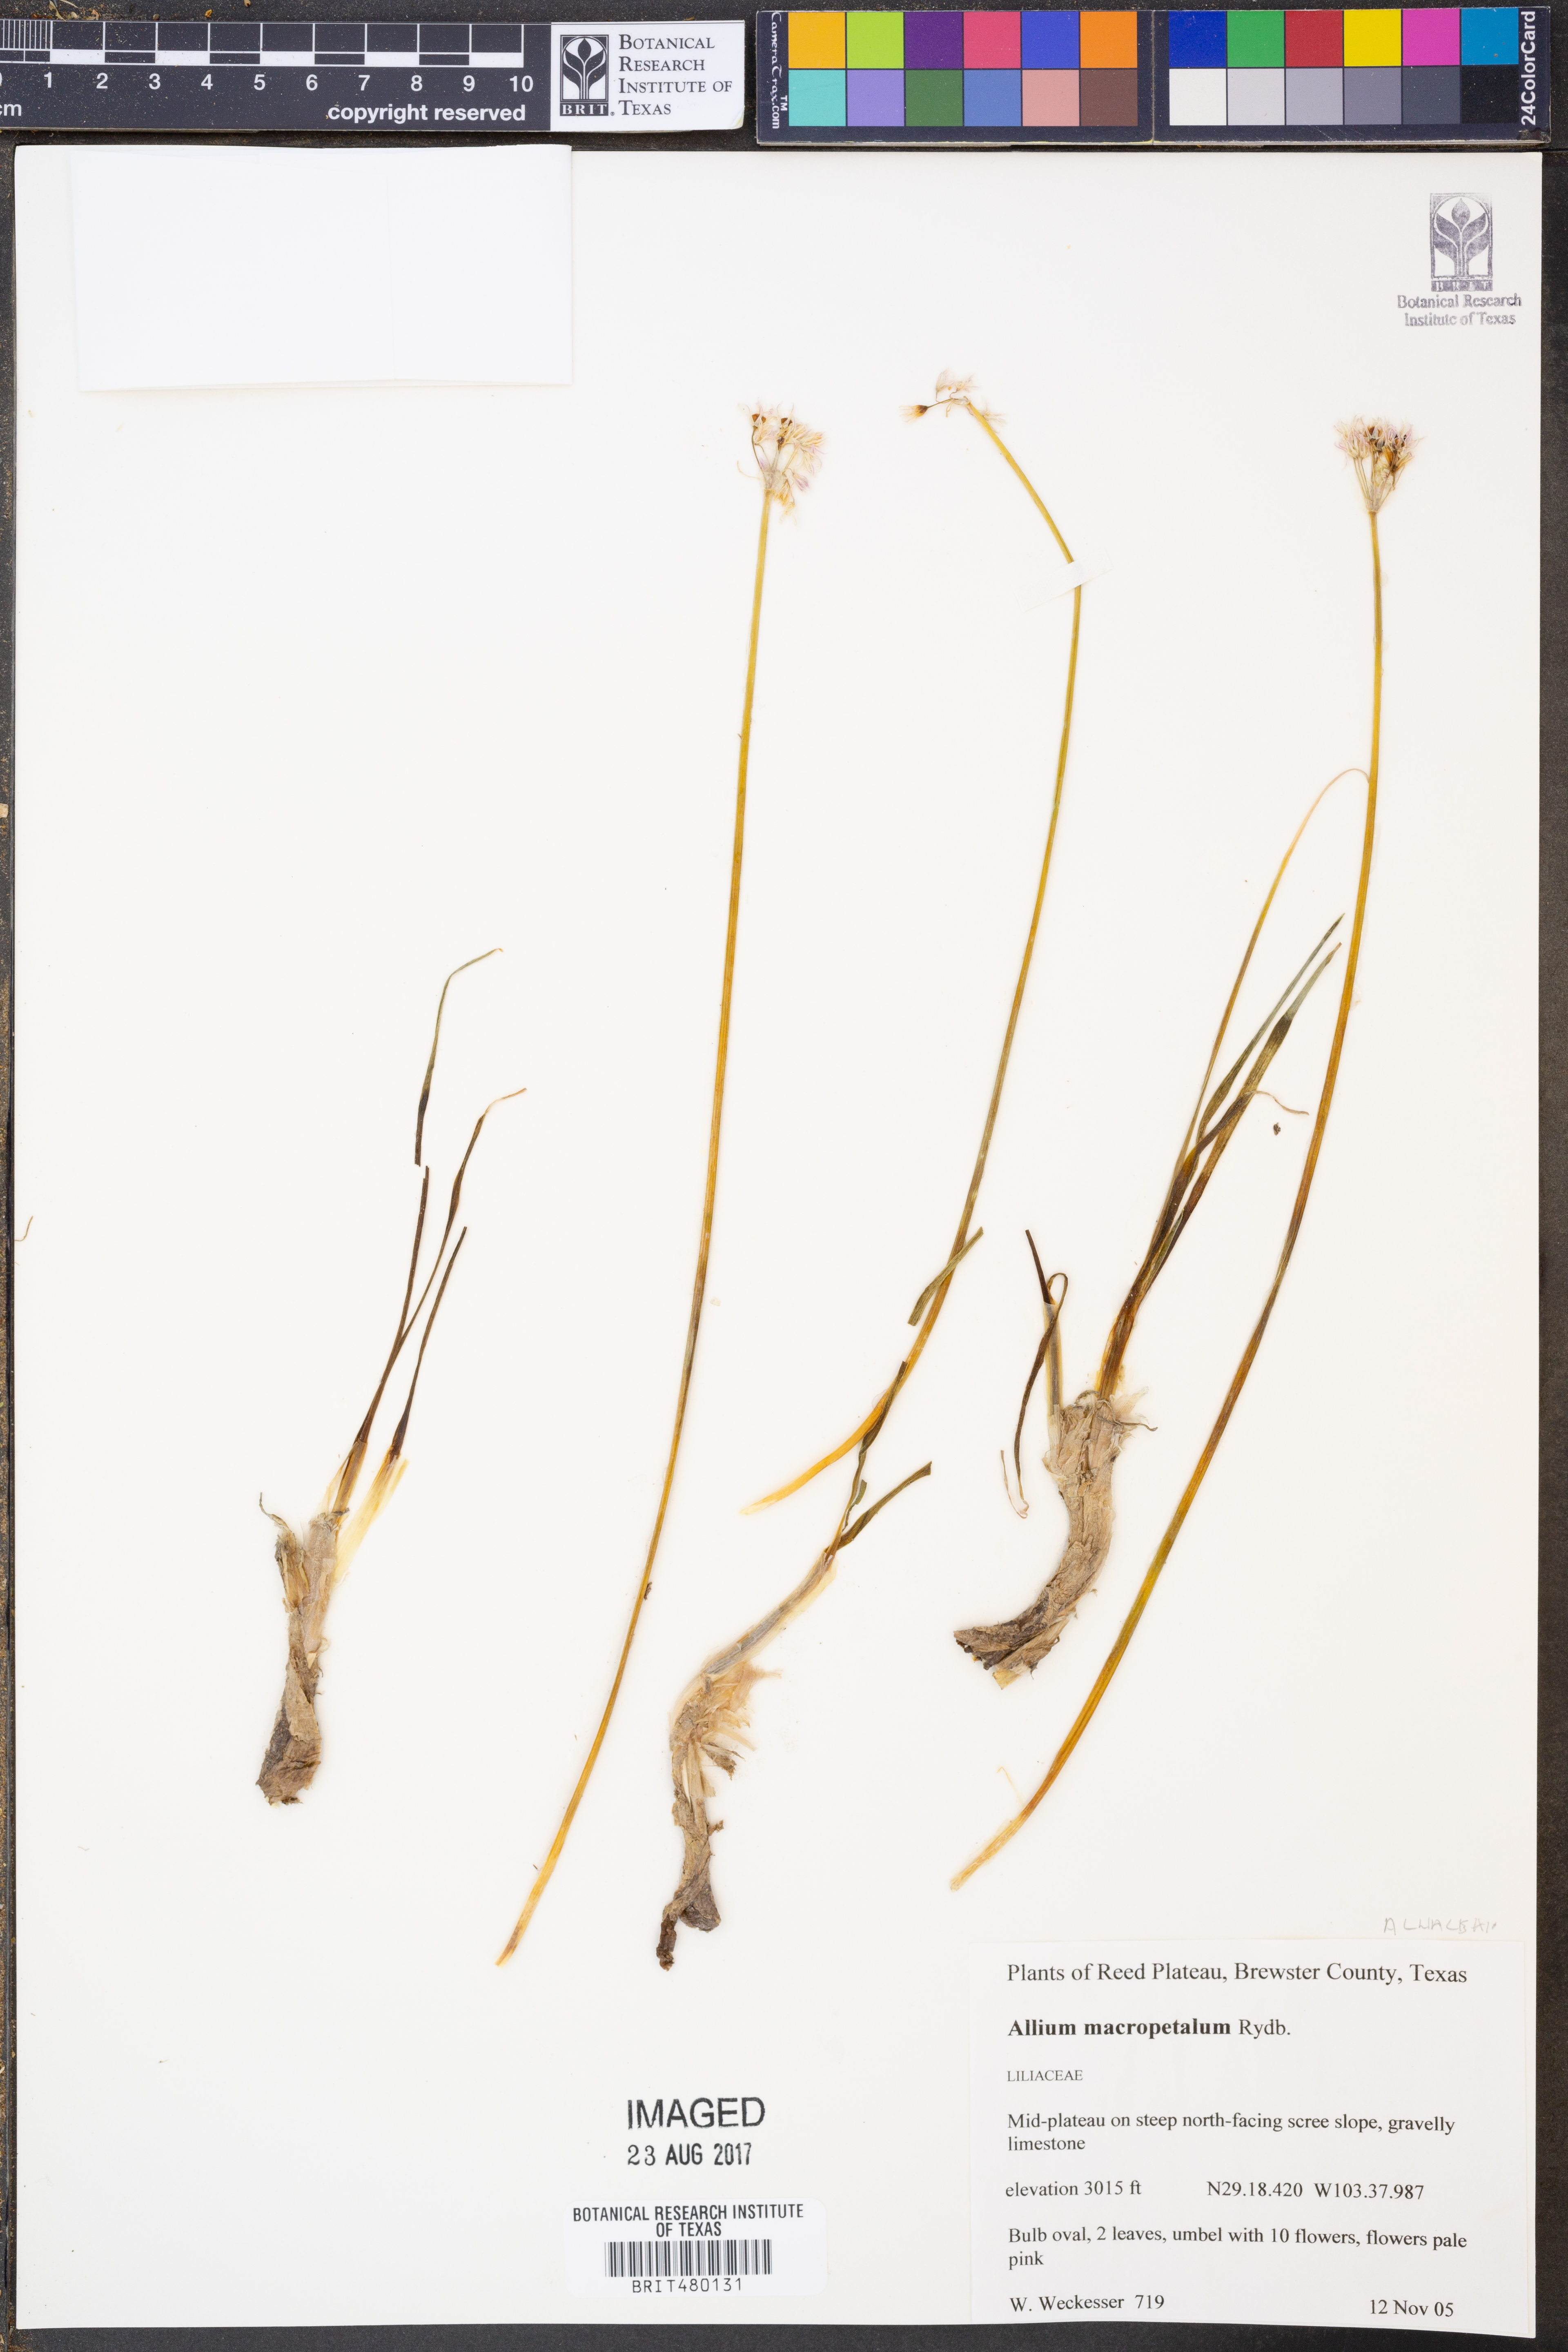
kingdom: Plantae
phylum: Tracheophyta
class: Liliopsida
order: Asparagales
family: Amaryllidaceae
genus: Allium
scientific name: Allium macropetalum
